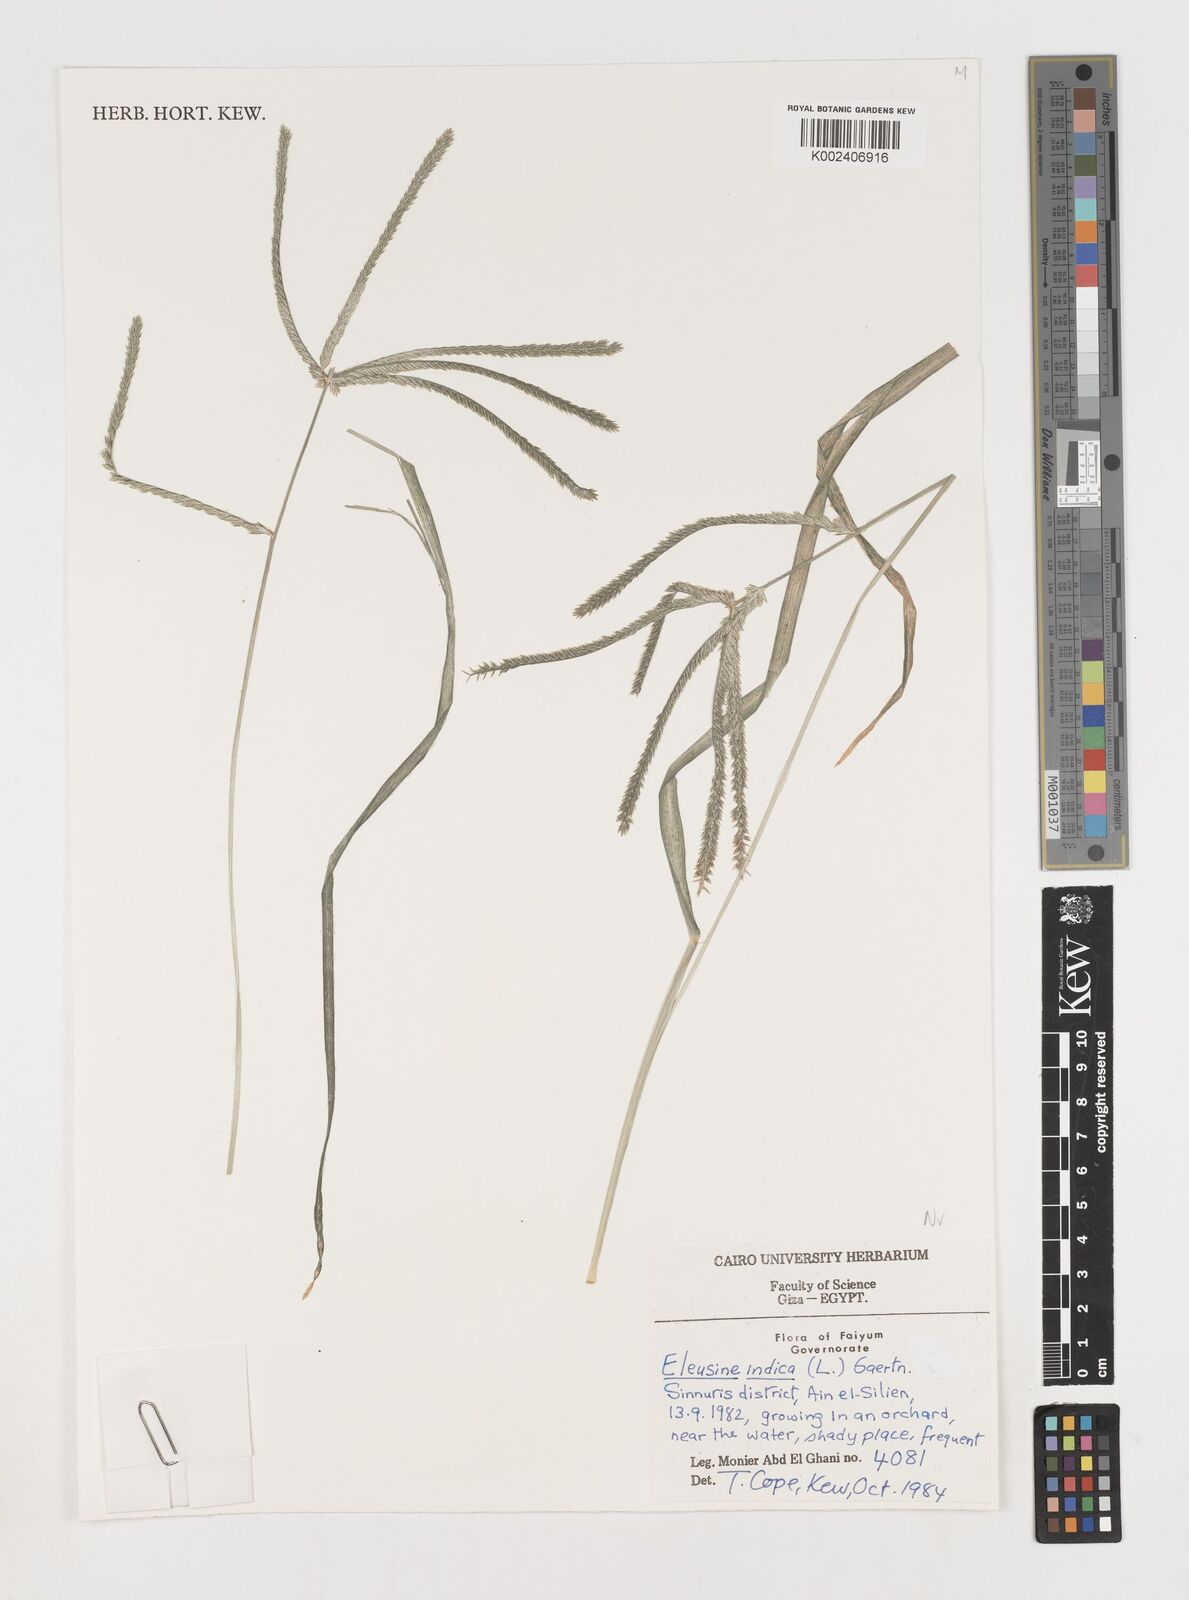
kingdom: Plantae
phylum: Tracheophyta
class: Liliopsida
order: Poales
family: Poaceae
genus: Eleusine
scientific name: Eleusine indica
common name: Yard-grass
